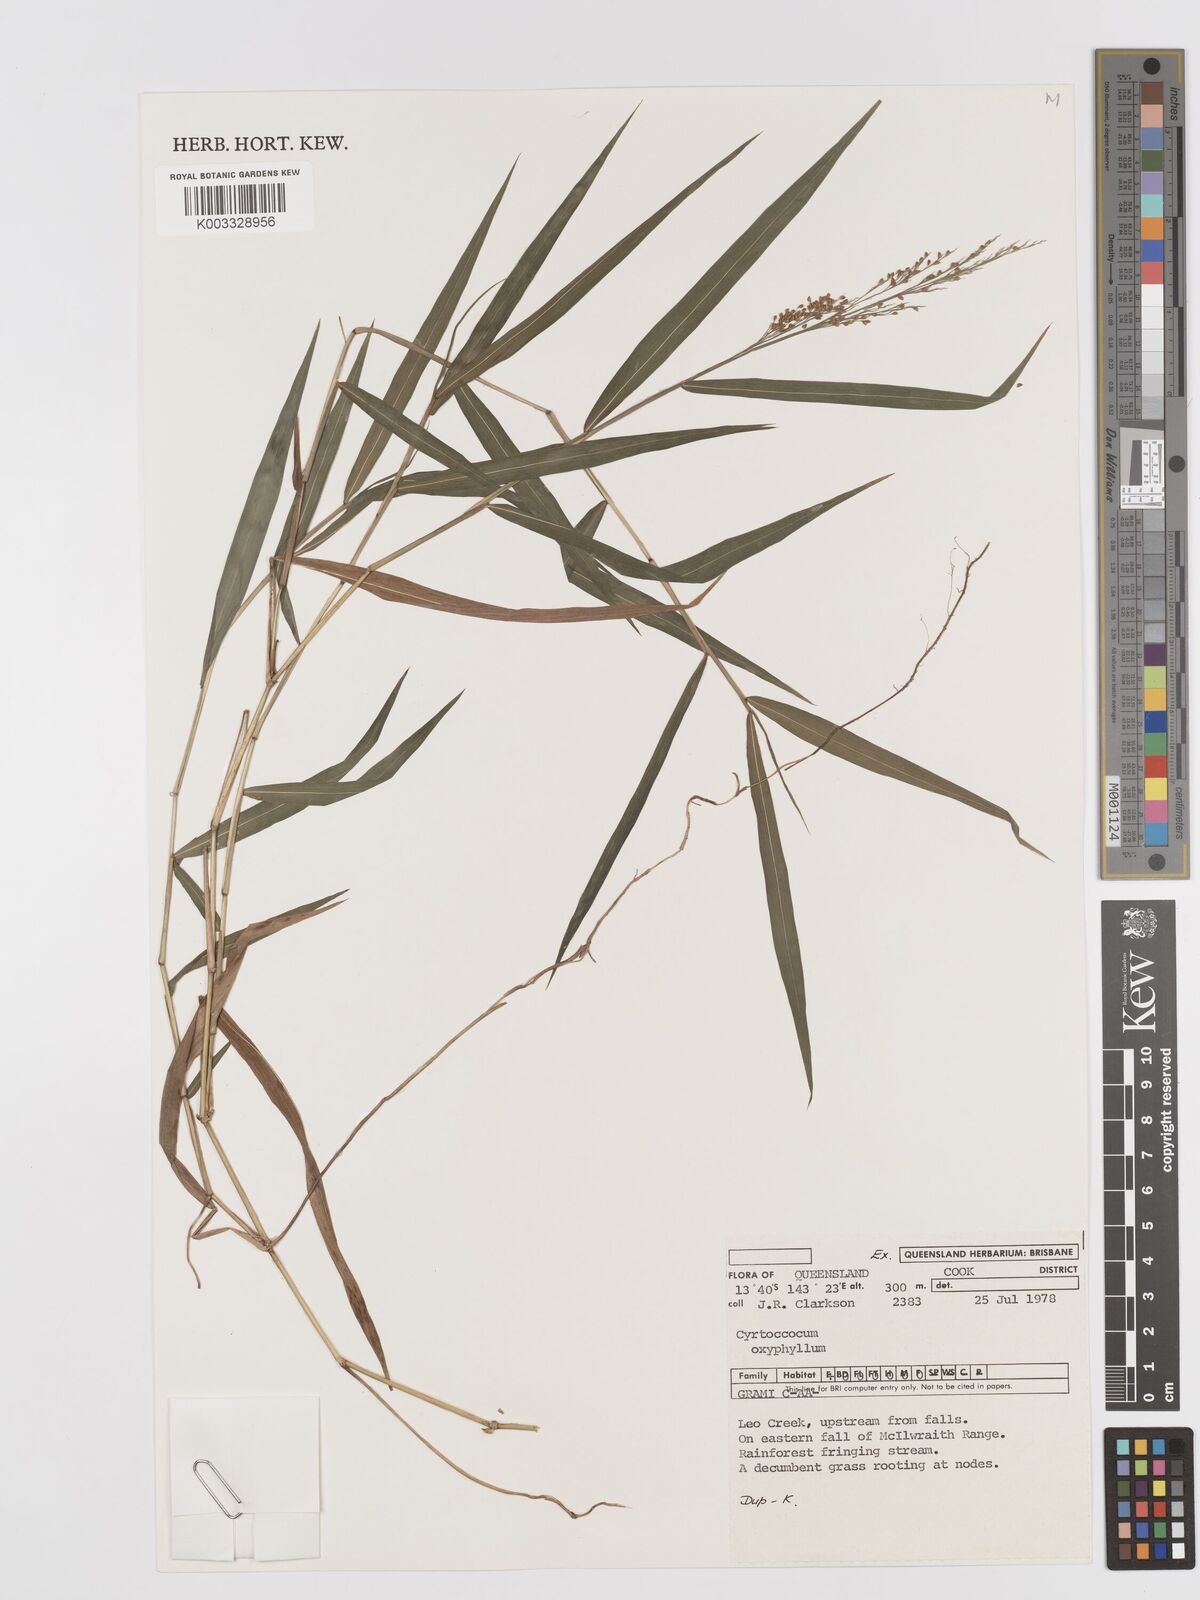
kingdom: Plantae
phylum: Tracheophyta
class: Liliopsida
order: Poales
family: Poaceae
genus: Cyrtococcum
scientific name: Cyrtococcum oxyphyllum
